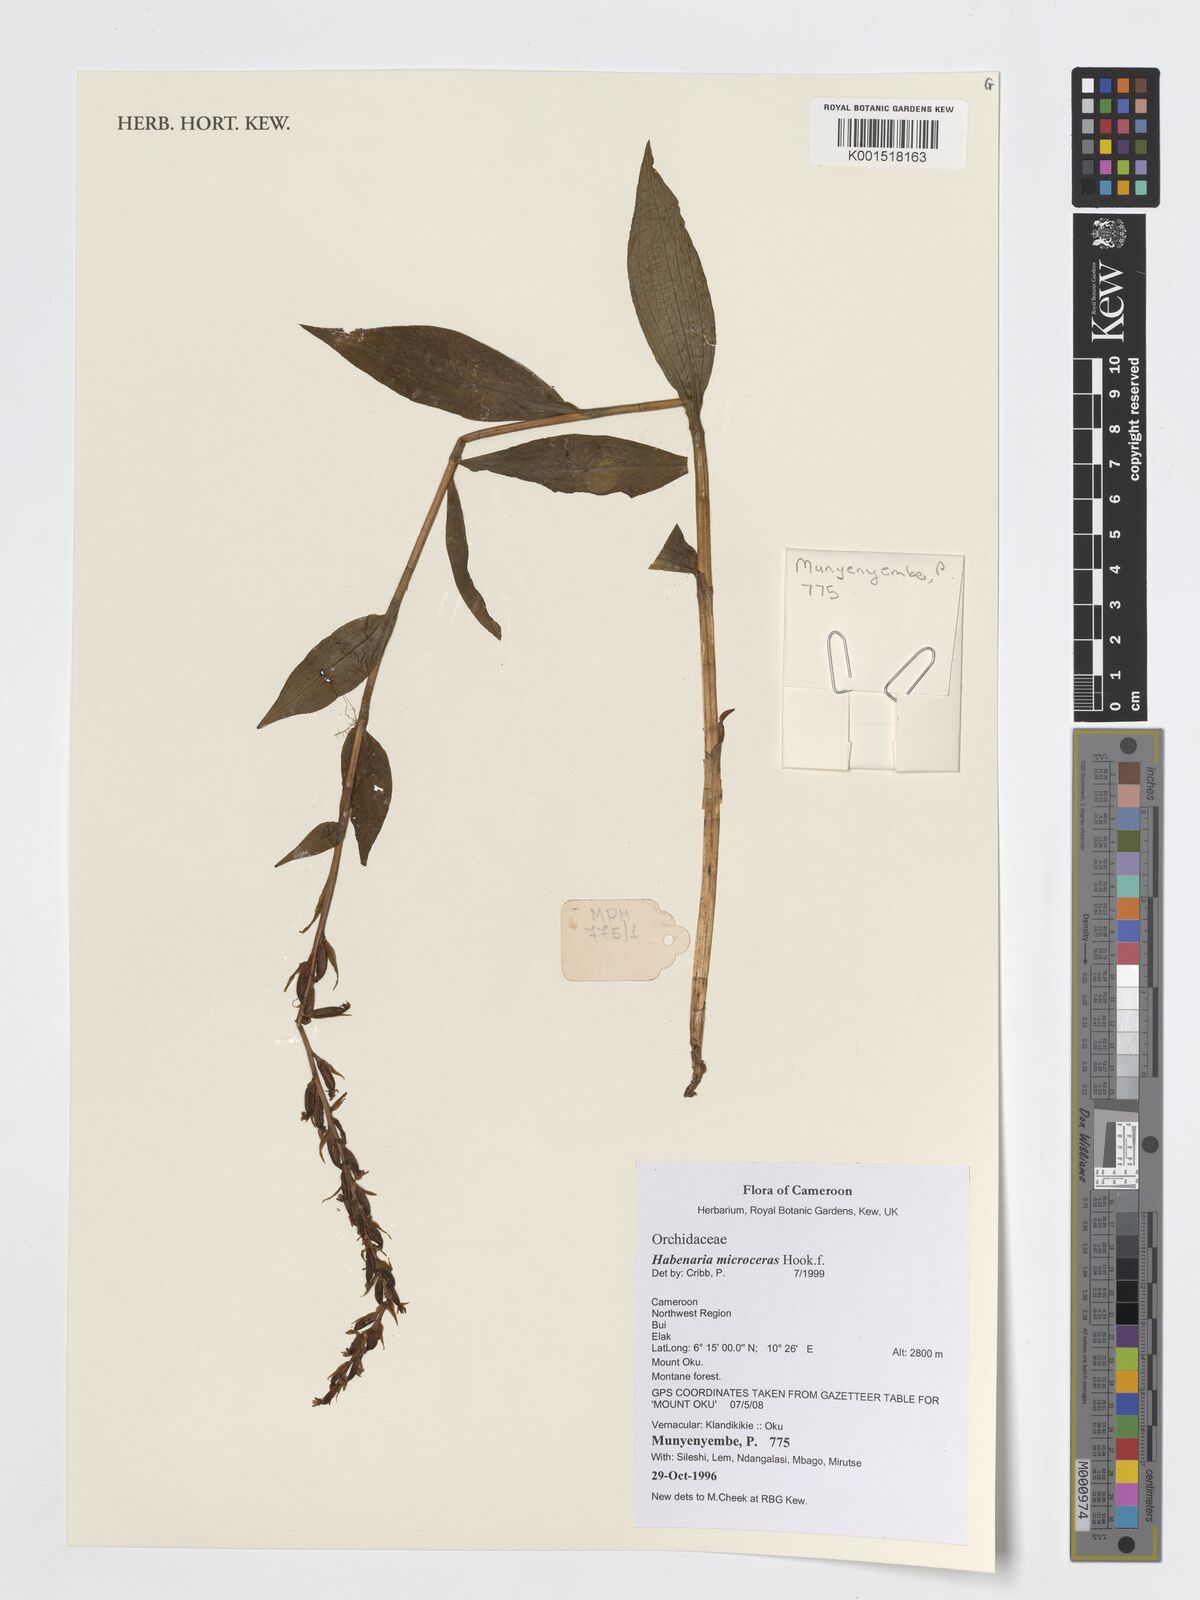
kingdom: Plantae
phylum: Tracheophyta
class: Liliopsida
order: Asparagales
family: Orchidaceae
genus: Habenaria
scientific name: Habenaria microceras
